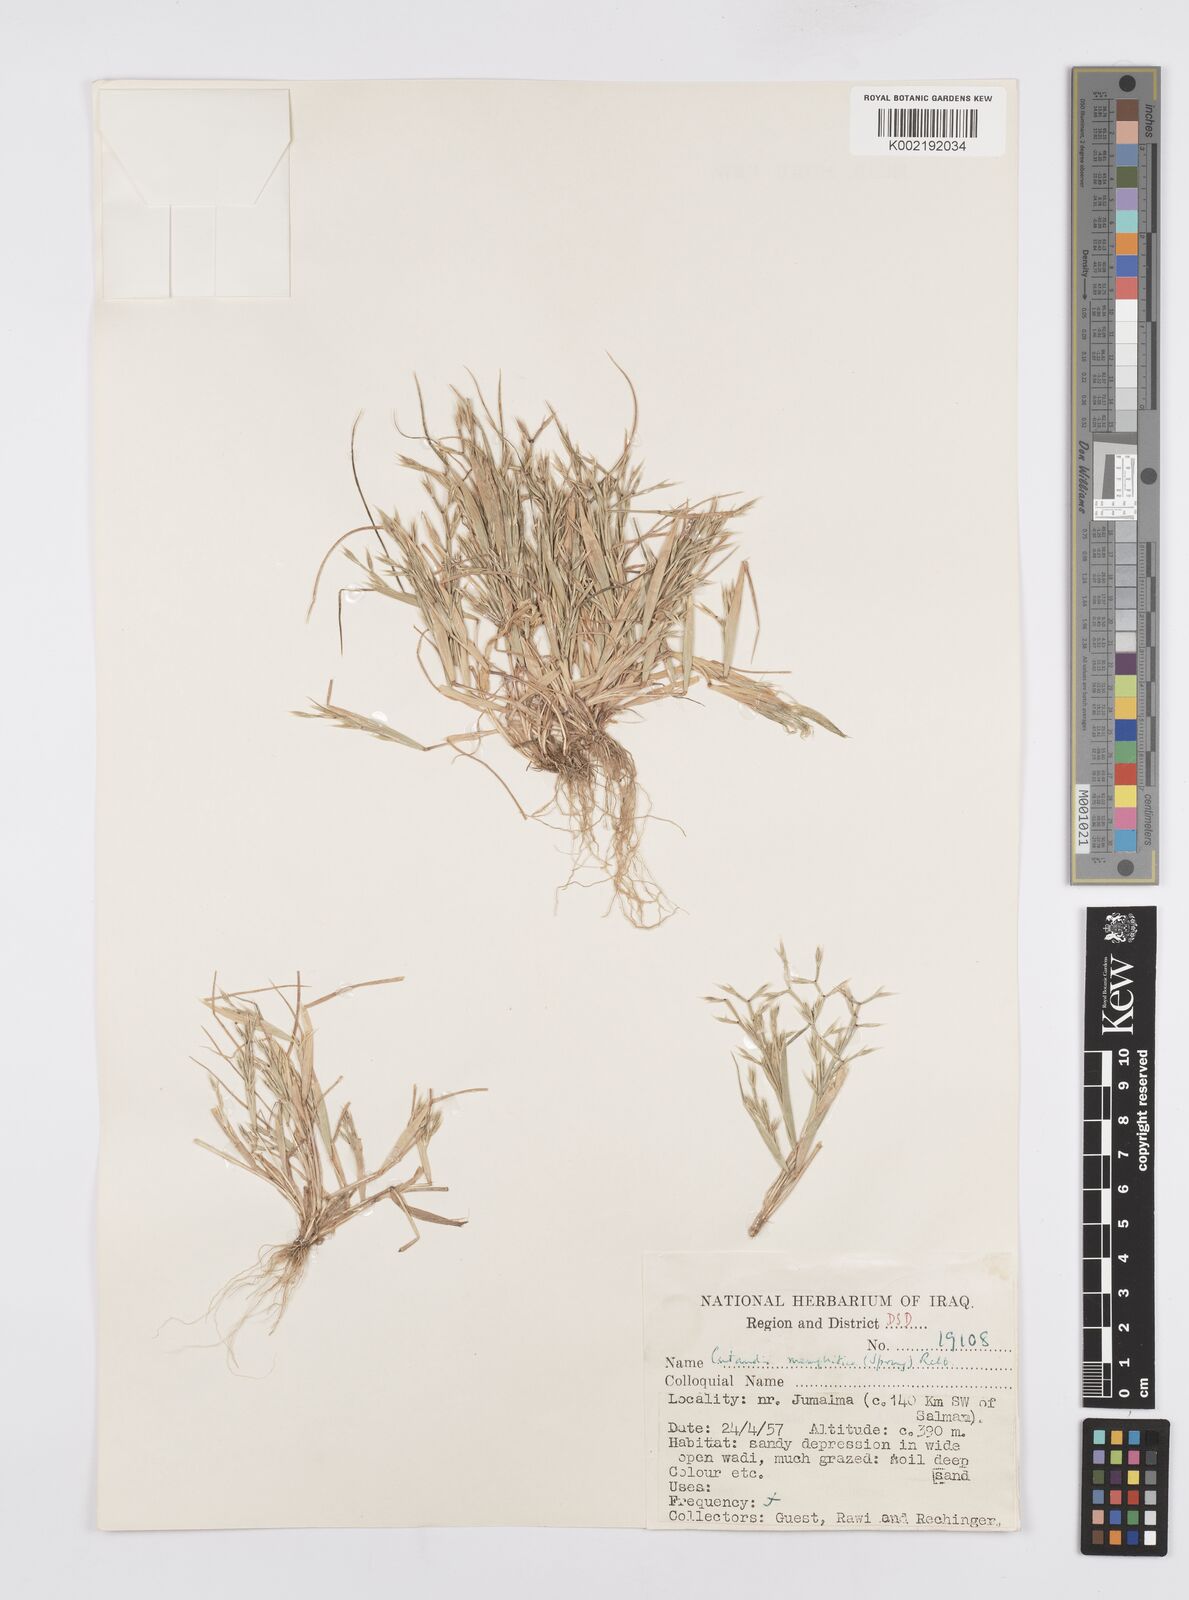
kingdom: Plantae
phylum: Tracheophyta
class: Liliopsida
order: Poales
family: Poaceae
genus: Cutandia
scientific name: Cutandia memphitica
